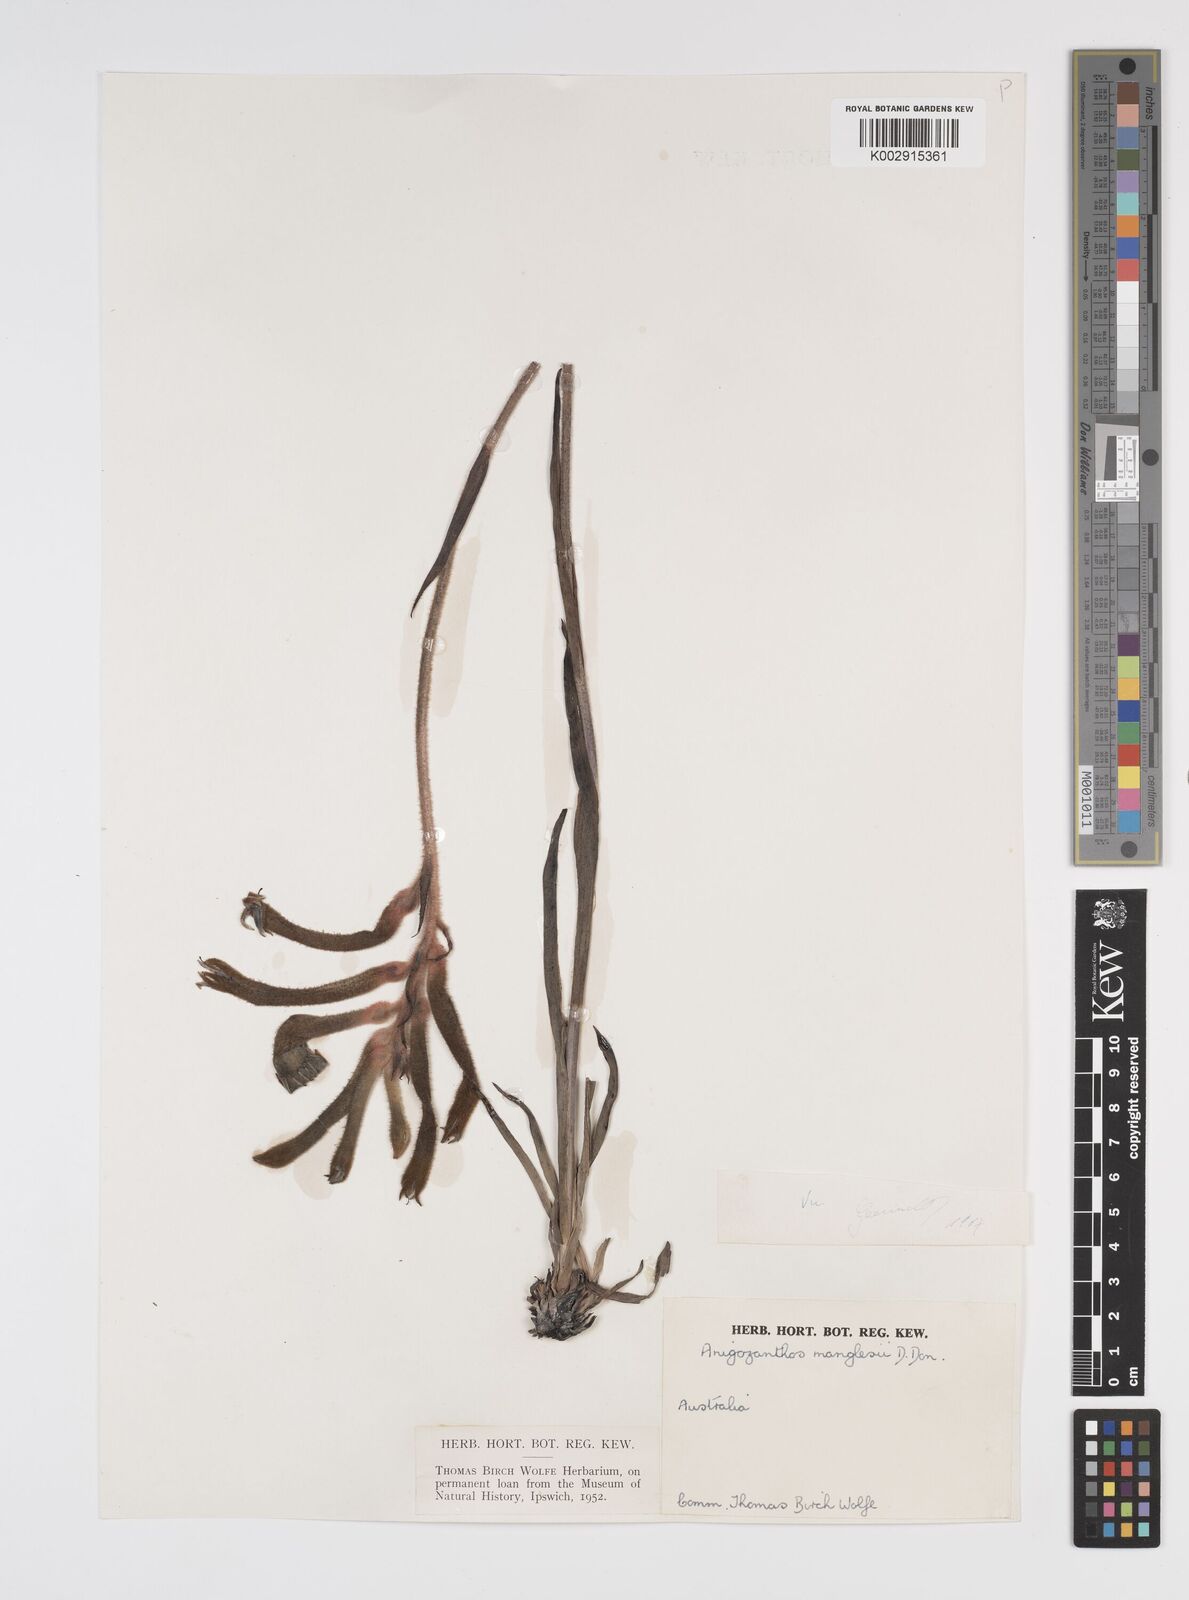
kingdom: Plantae
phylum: Tracheophyta
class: Liliopsida
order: Commelinales
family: Haemodoraceae
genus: Anigozanthos
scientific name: Anigozanthos manglesii
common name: Mangles's kangaroo-paw
